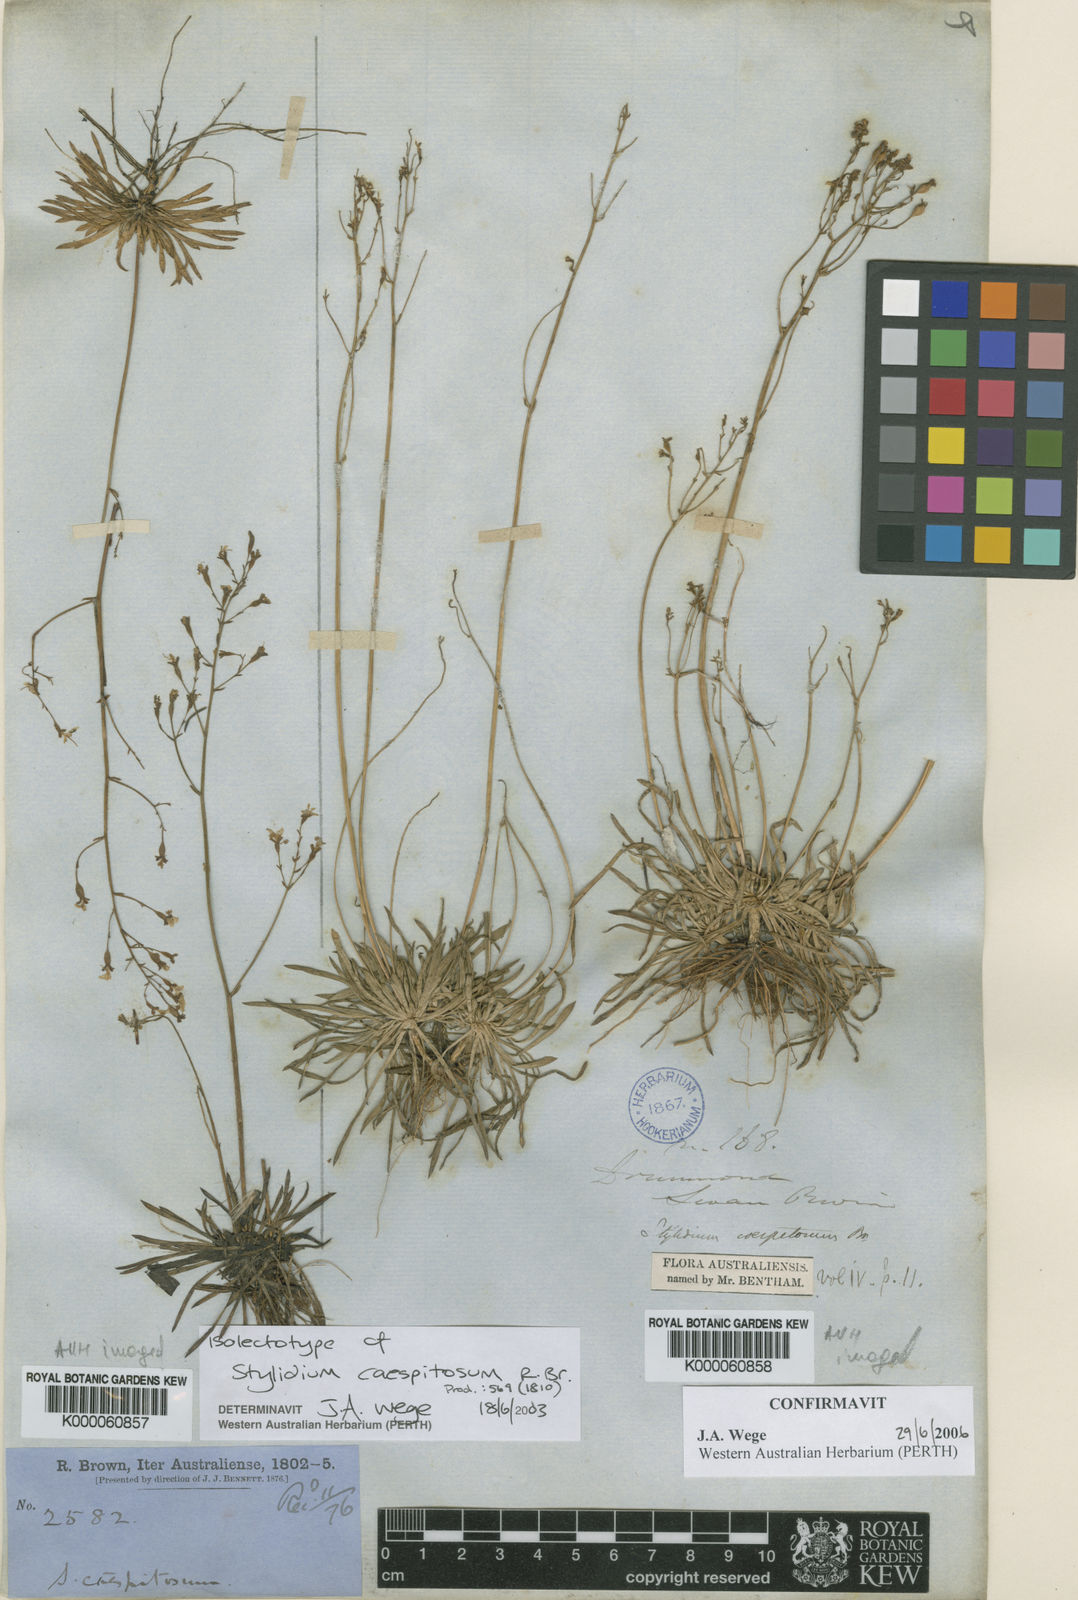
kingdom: Plantae
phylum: Tracheophyta
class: Magnoliopsida
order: Asterales
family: Stylidiaceae
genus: Stylidium
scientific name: Stylidium caespitosum
